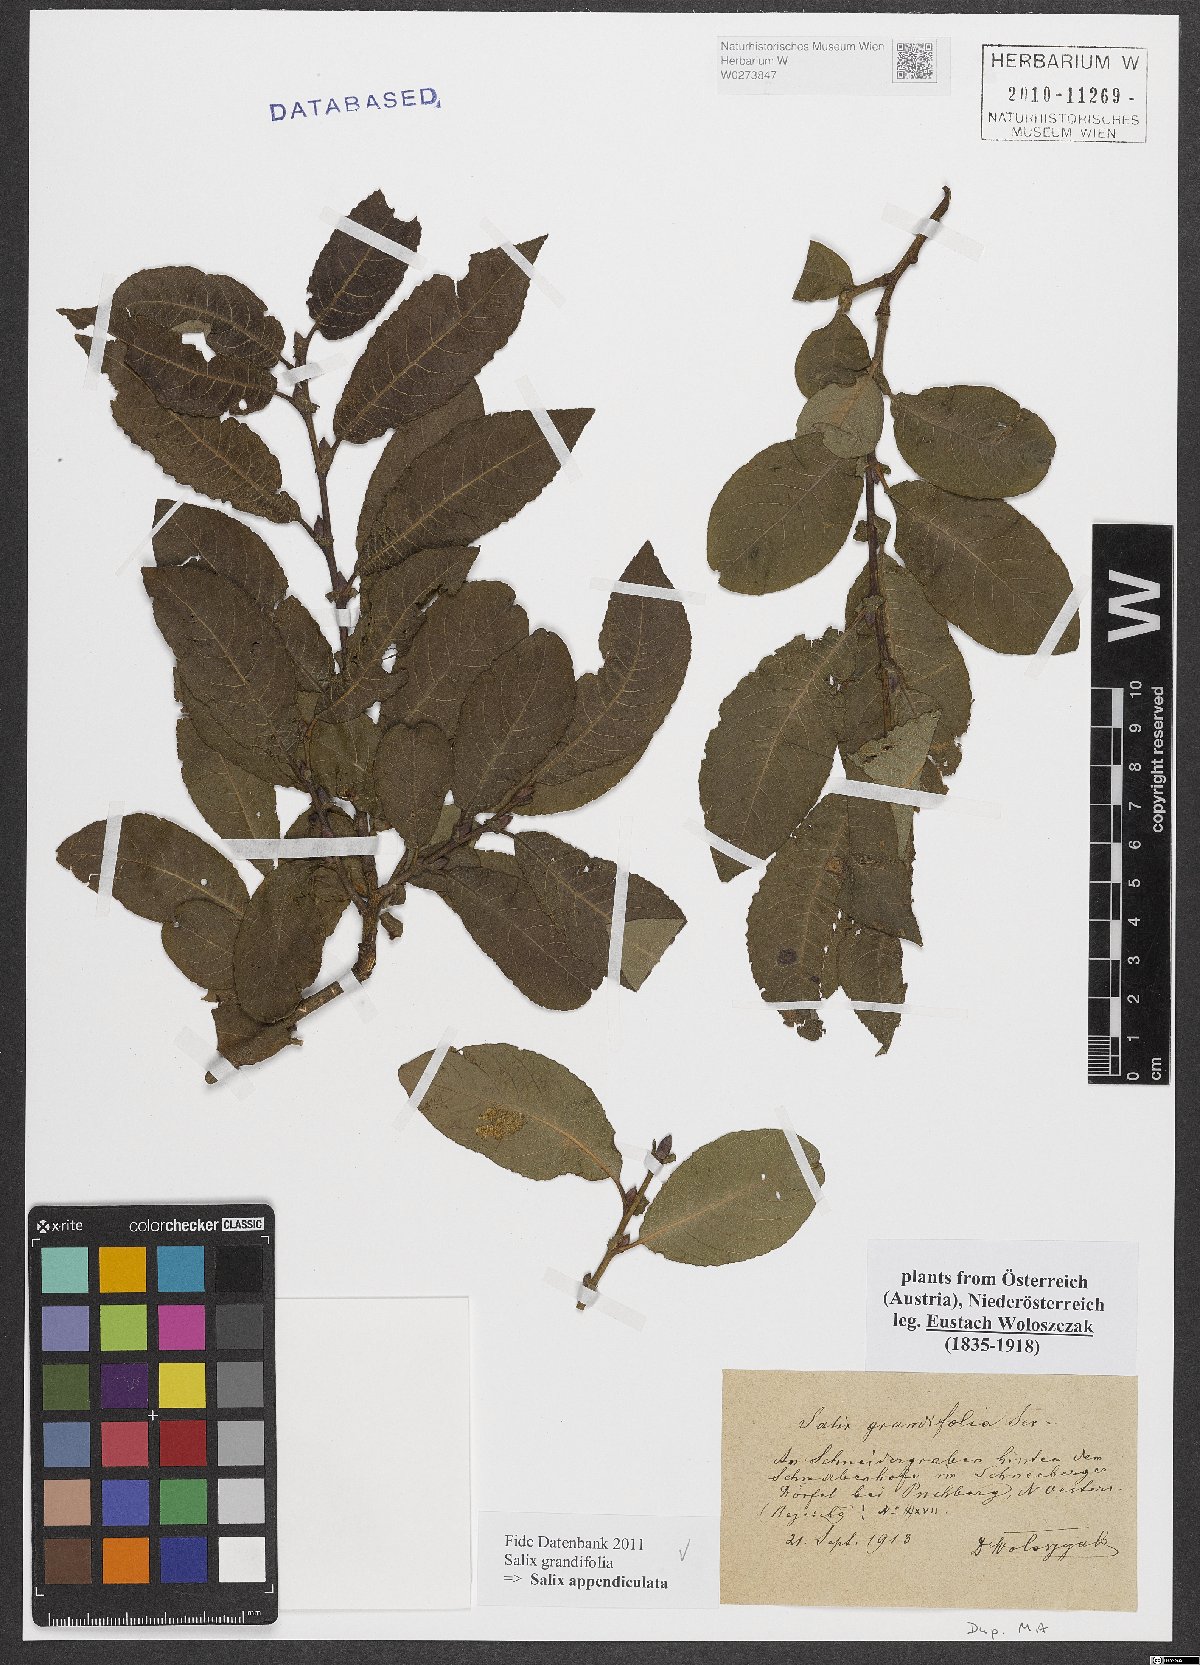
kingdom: Plantae
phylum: Tracheophyta
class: Magnoliopsida
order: Malpighiales
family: Salicaceae
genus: Salix
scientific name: Salix appendiculata
